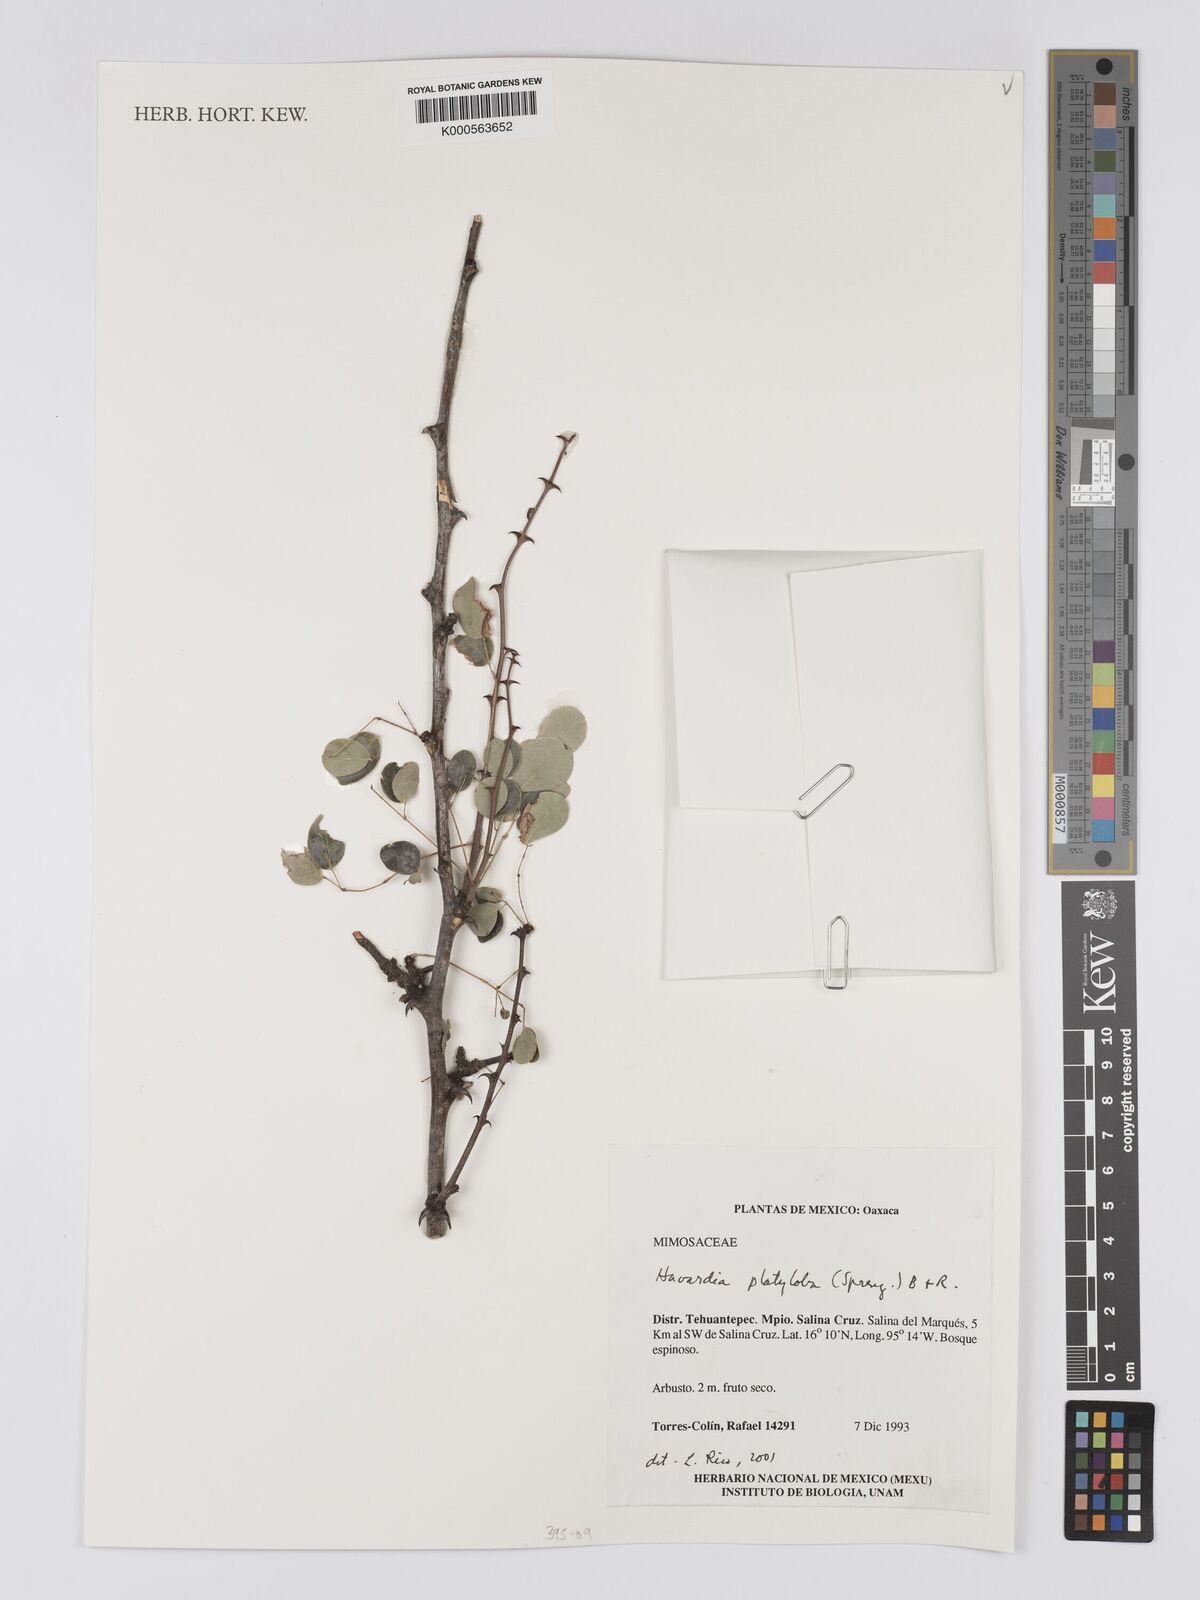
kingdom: Plantae
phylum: Tracheophyta
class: Magnoliopsida
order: Fabales
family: Fabaceae
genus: Havardia
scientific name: Havardia platyloba
